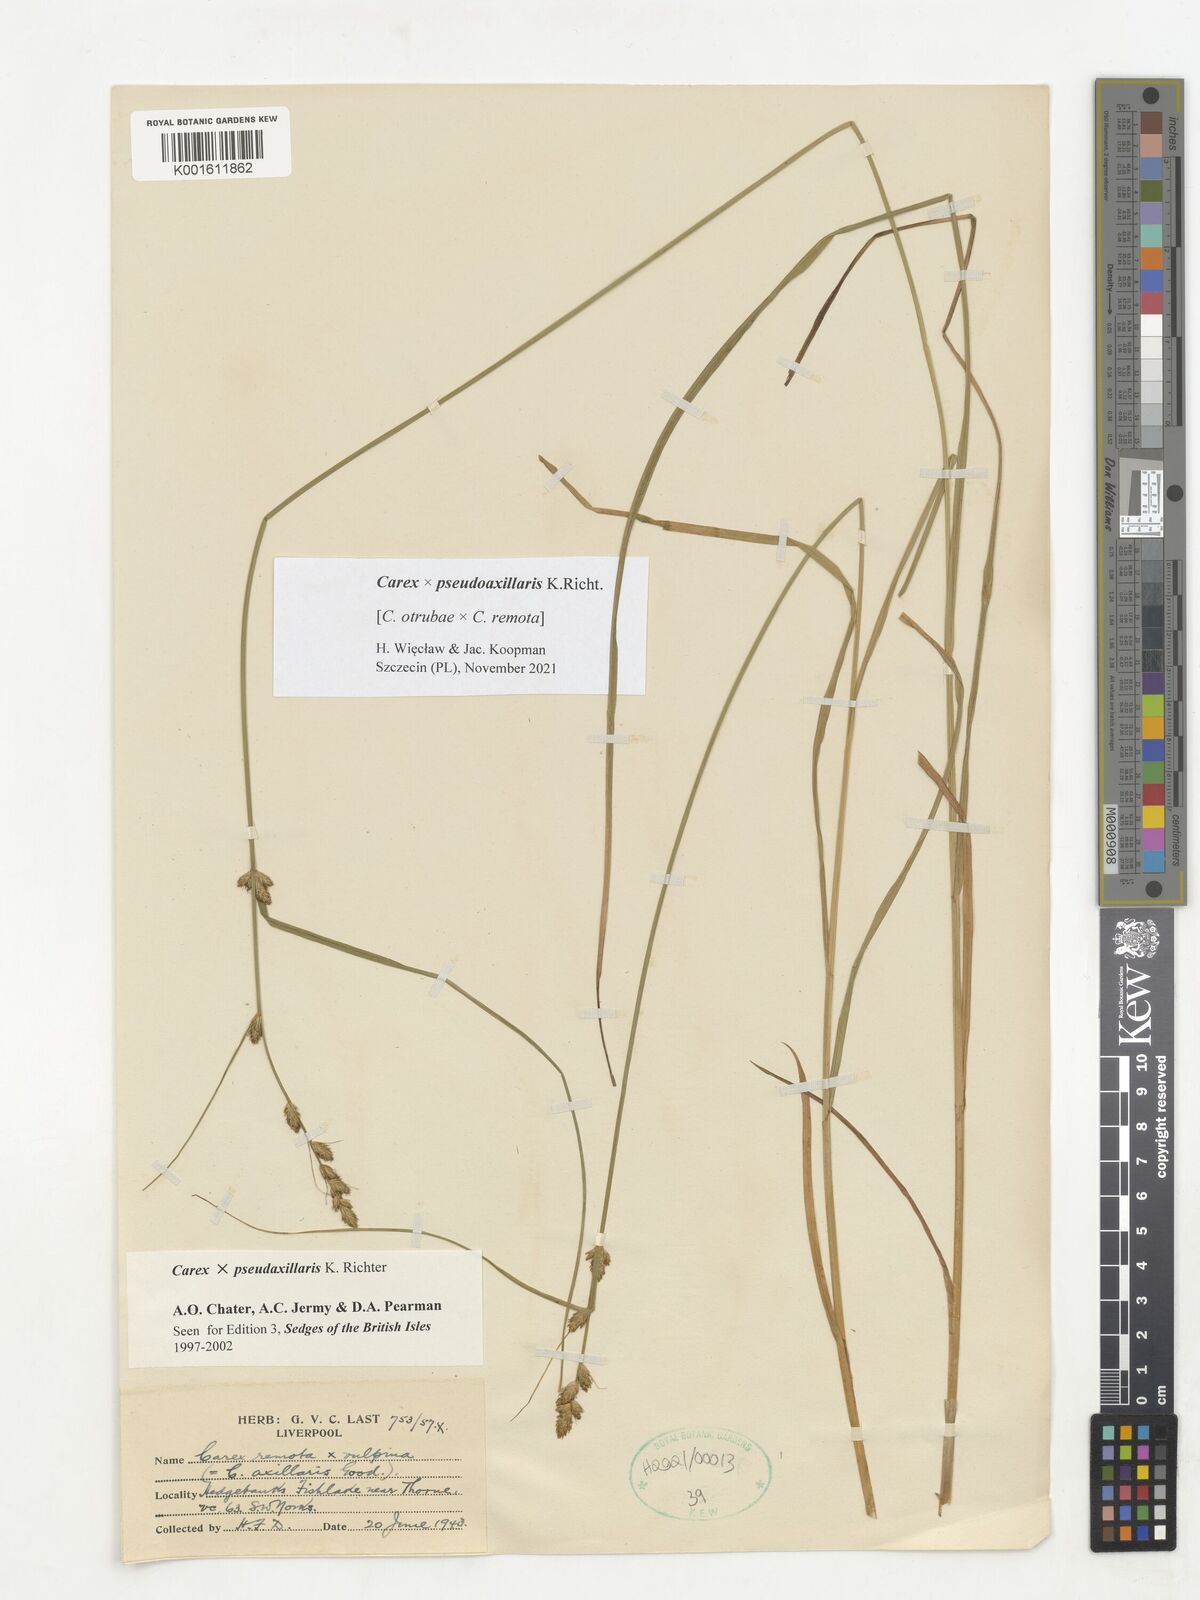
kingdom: Plantae
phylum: Tracheophyta
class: Liliopsida
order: Poales
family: Cyperaceae
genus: Carex
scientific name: Carex pseudoaxillaris
